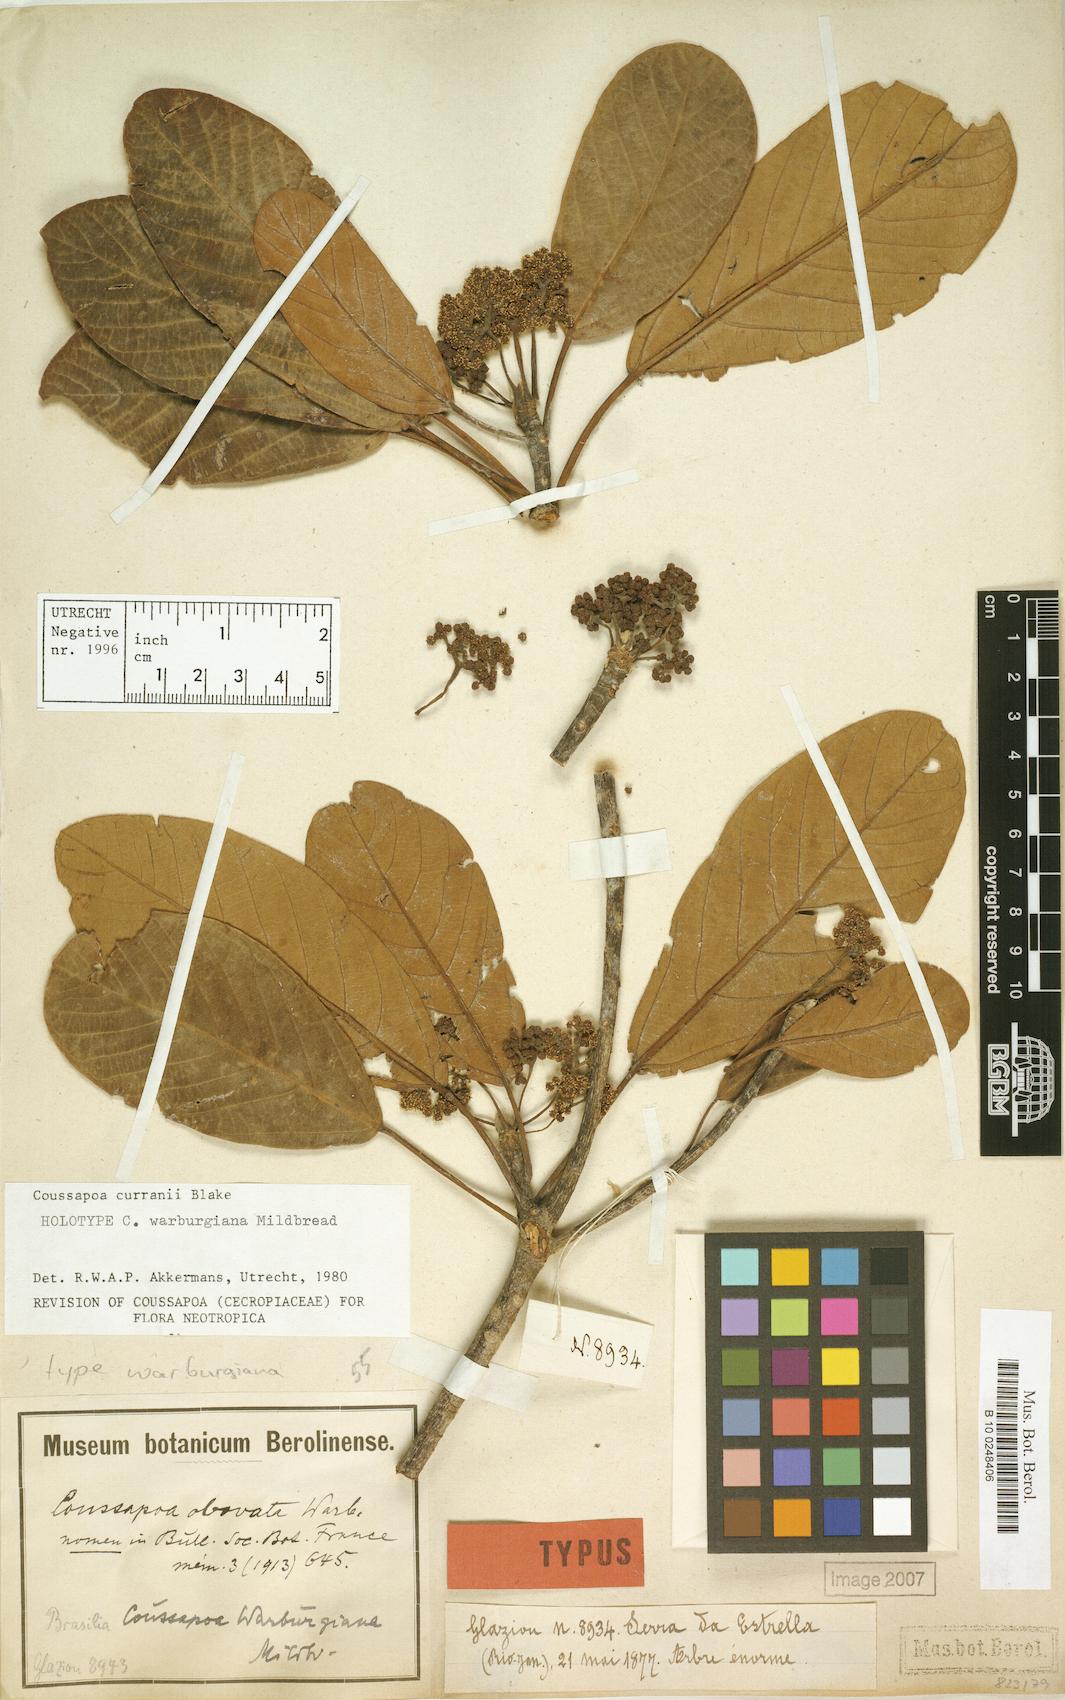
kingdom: Plantae
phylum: Tracheophyta
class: Magnoliopsida
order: Rosales
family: Urticaceae
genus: Coussapoa
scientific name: Coussapoa curranii
